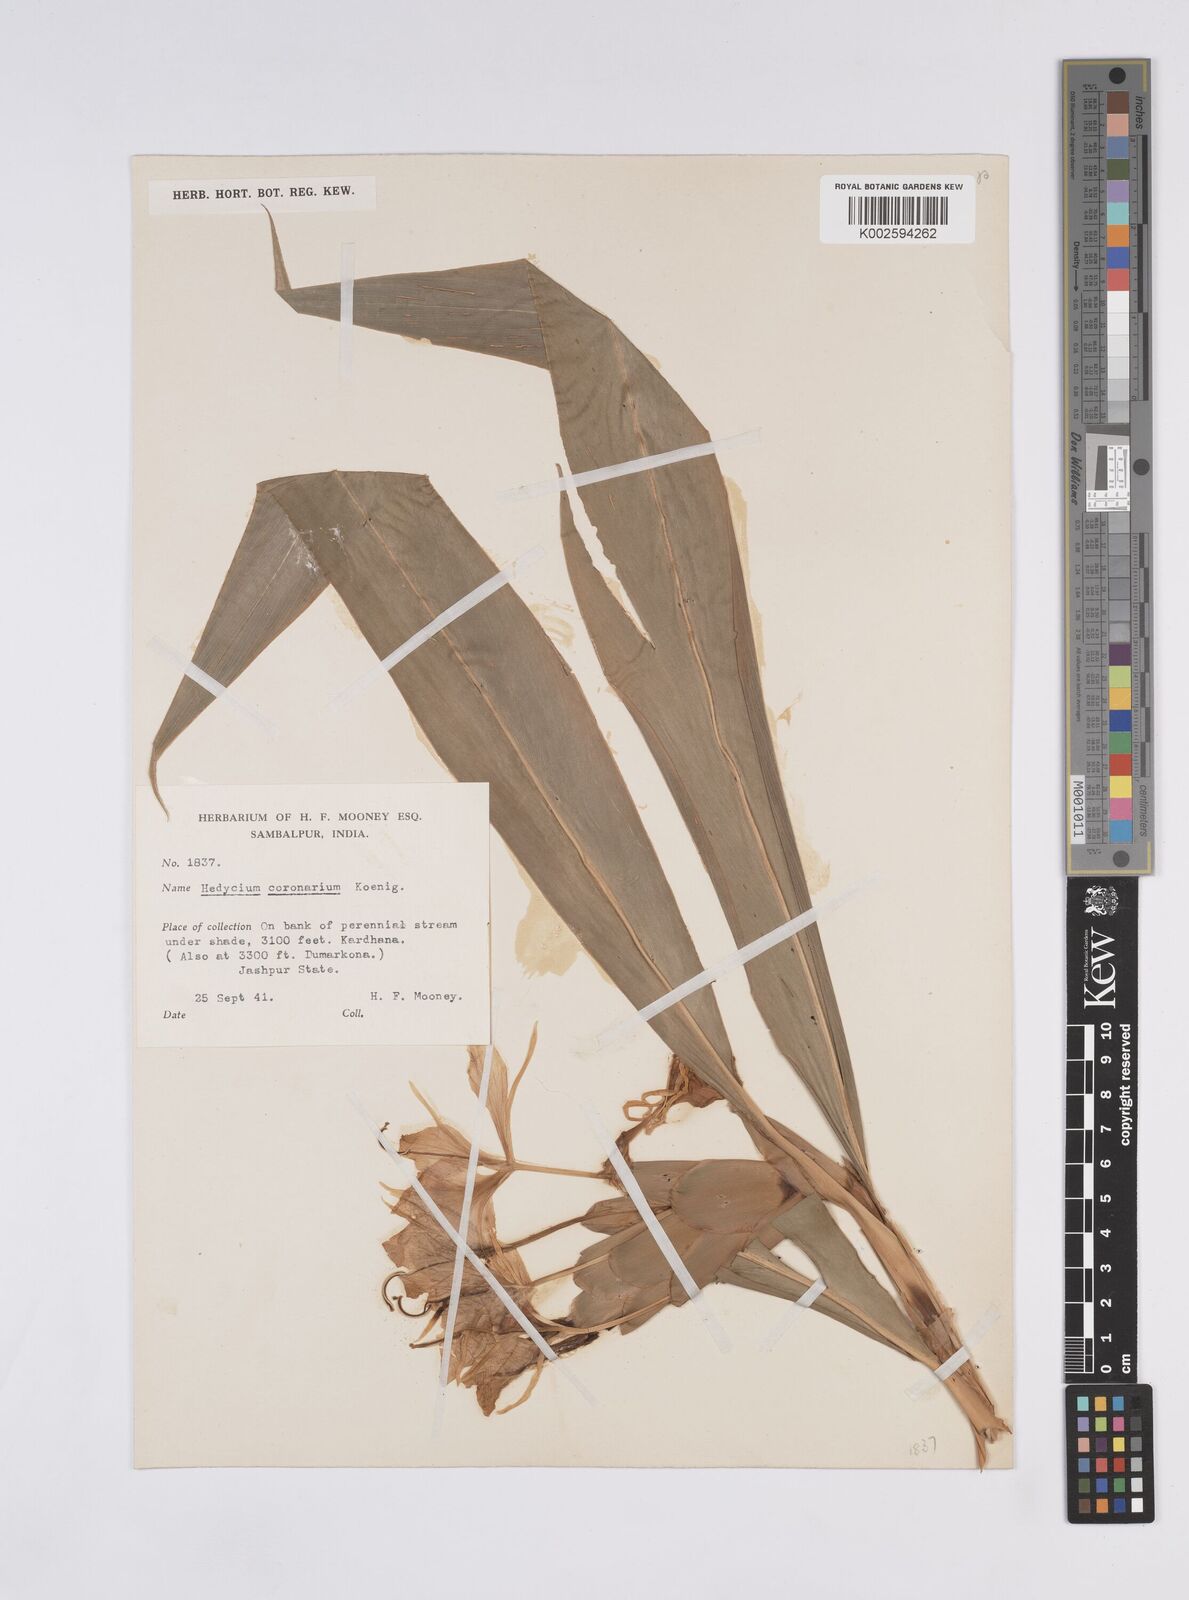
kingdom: Plantae
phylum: Tracheophyta
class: Liliopsida
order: Zingiberales
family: Zingiberaceae
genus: Hedychium
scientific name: Hedychium coronarium
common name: White garland-lily
